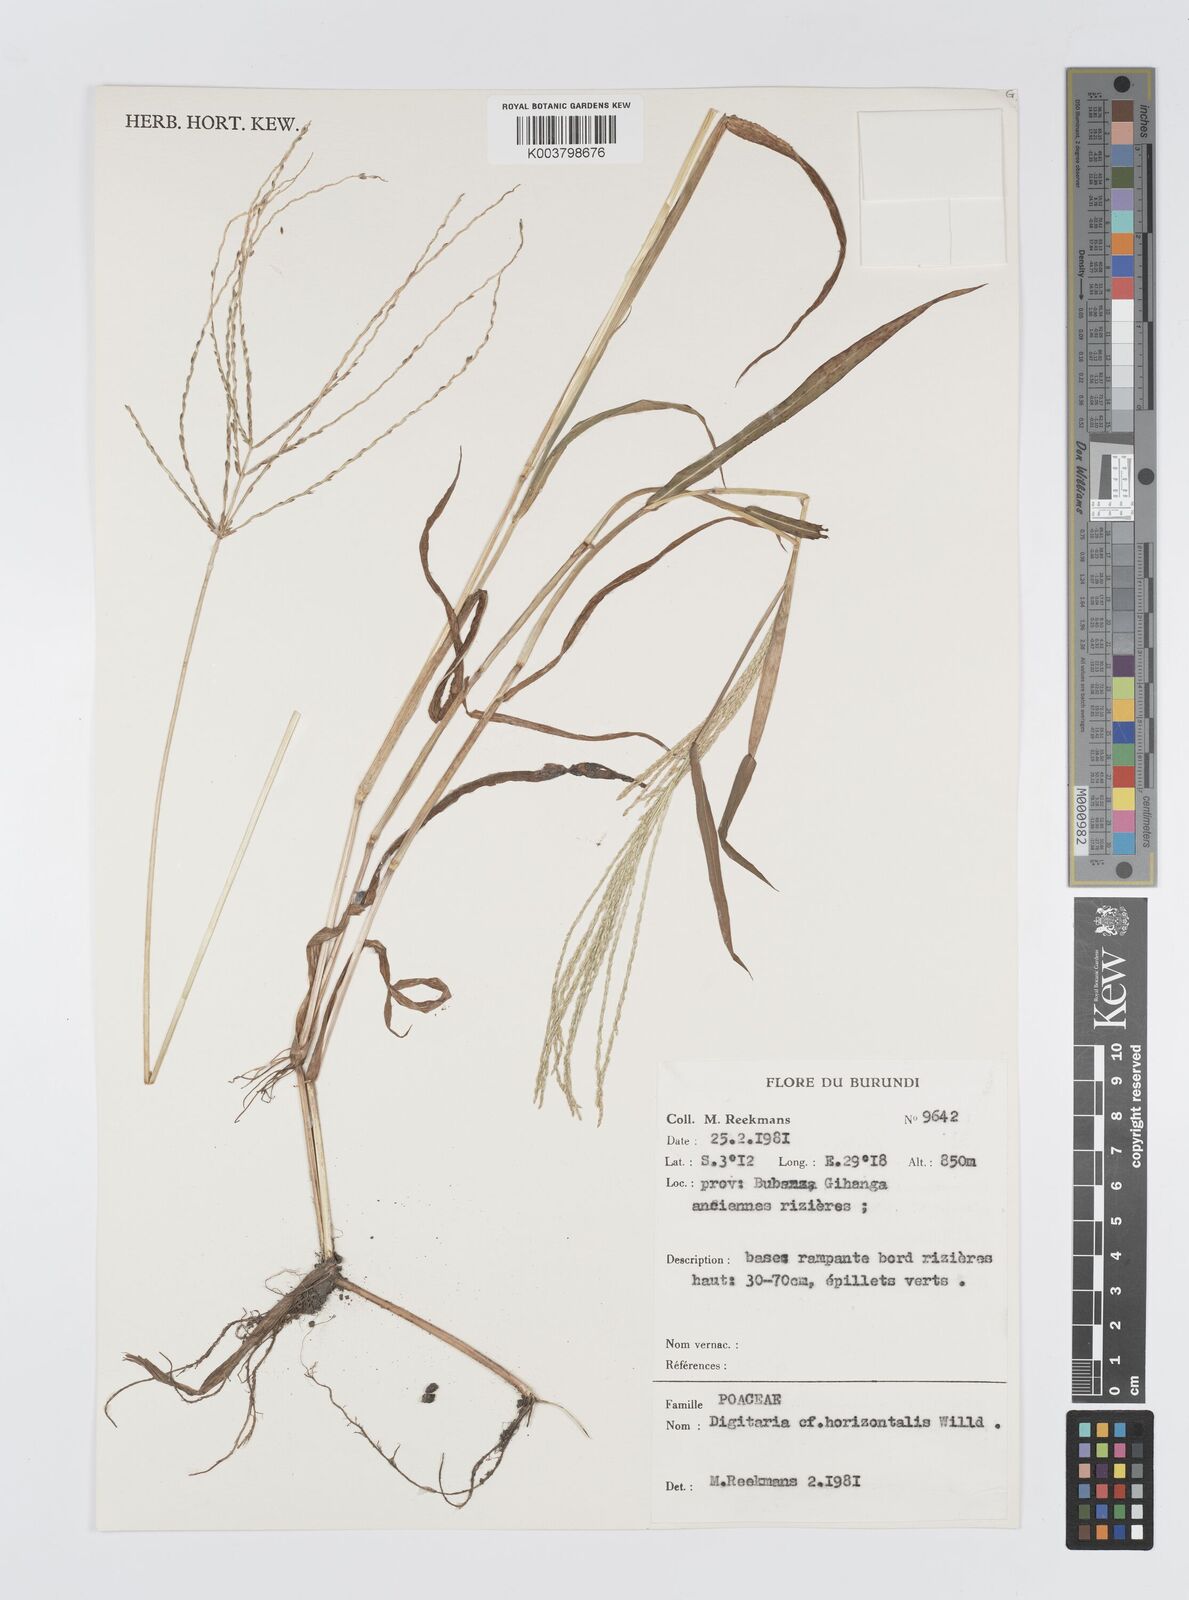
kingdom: Plantae
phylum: Tracheophyta
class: Liliopsida
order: Poales
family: Poaceae
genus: Digitaria
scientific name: Digitaria spec
